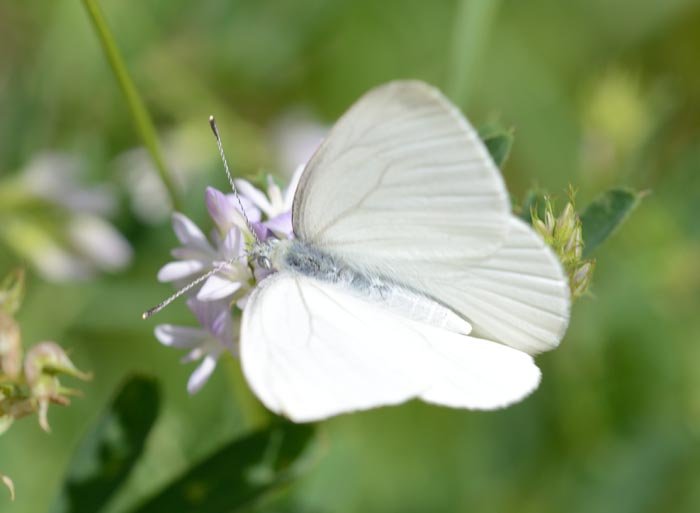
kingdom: Animalia
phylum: Arthropoda
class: Insecta
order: Lepidoptera
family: Pieridae
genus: Pieris
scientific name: Pieris oleracea
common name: Mustard White
